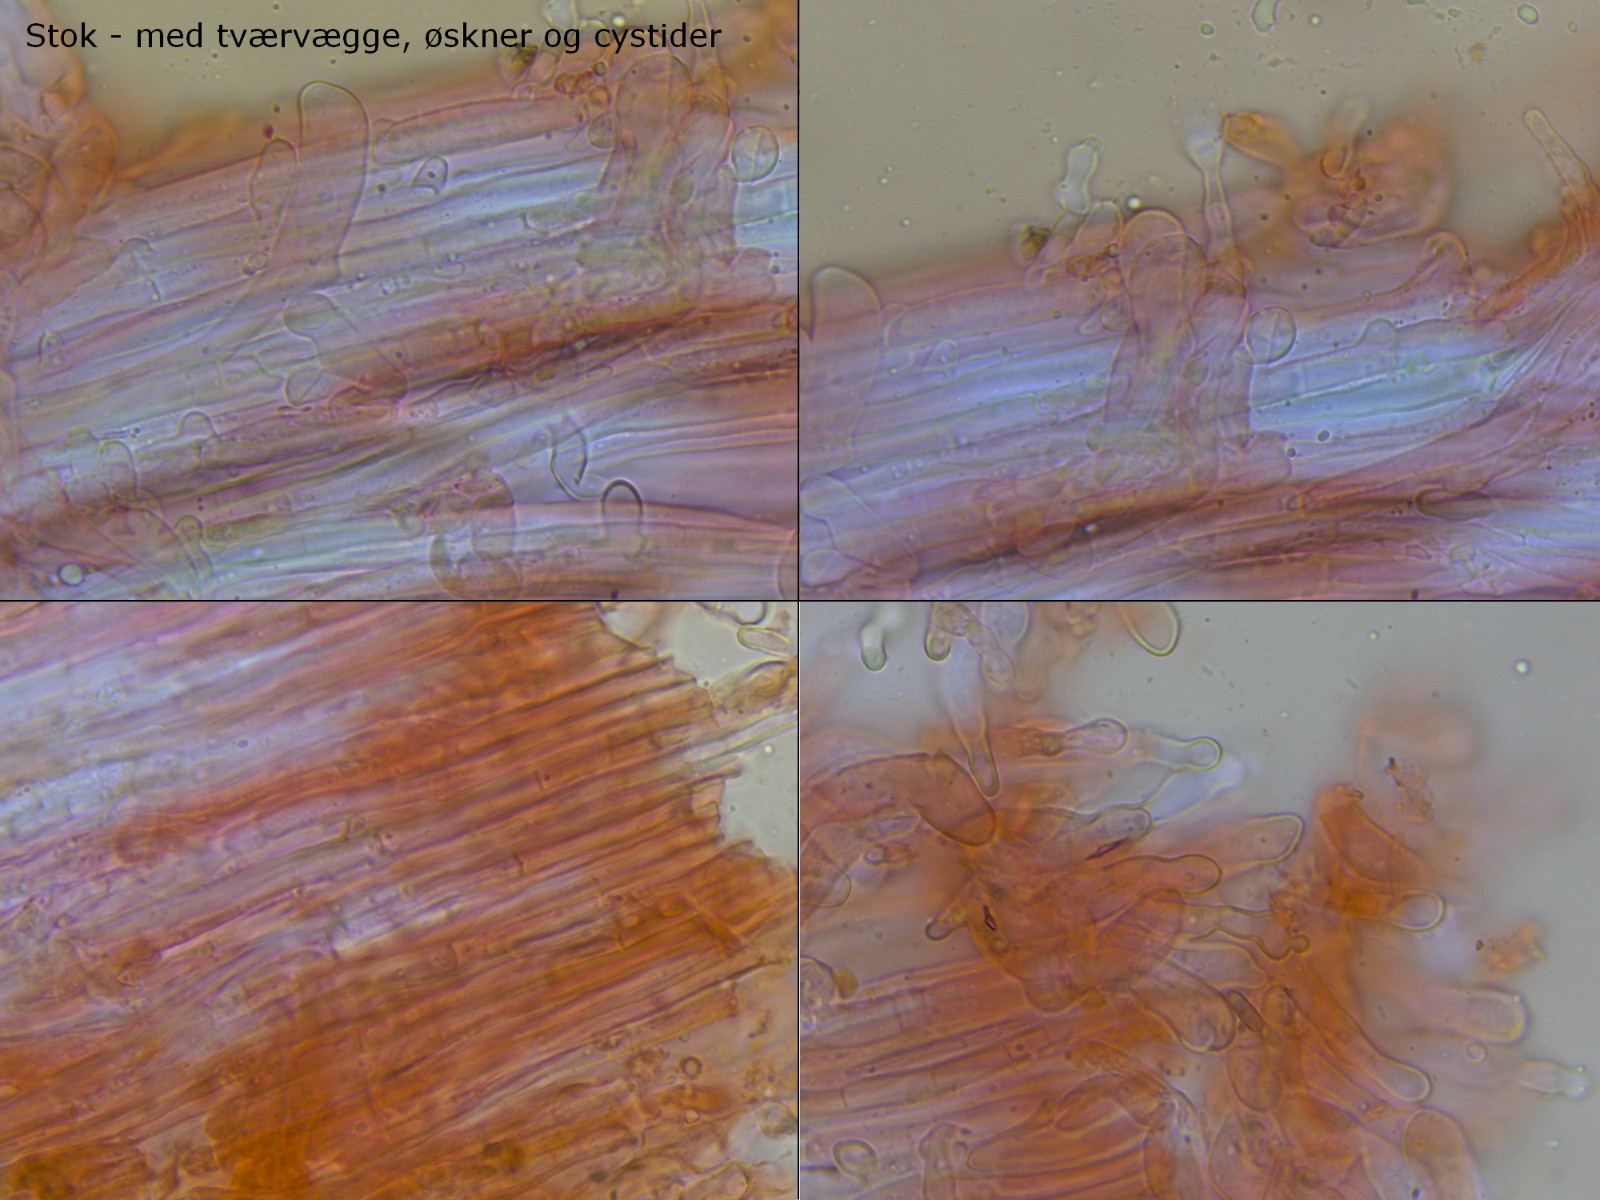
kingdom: Fungi
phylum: Basidiomycota
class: Agaricomycetes
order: Agaricales
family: Omphalotaceae
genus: Collybiopsis
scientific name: Collybiopsis ramealis
